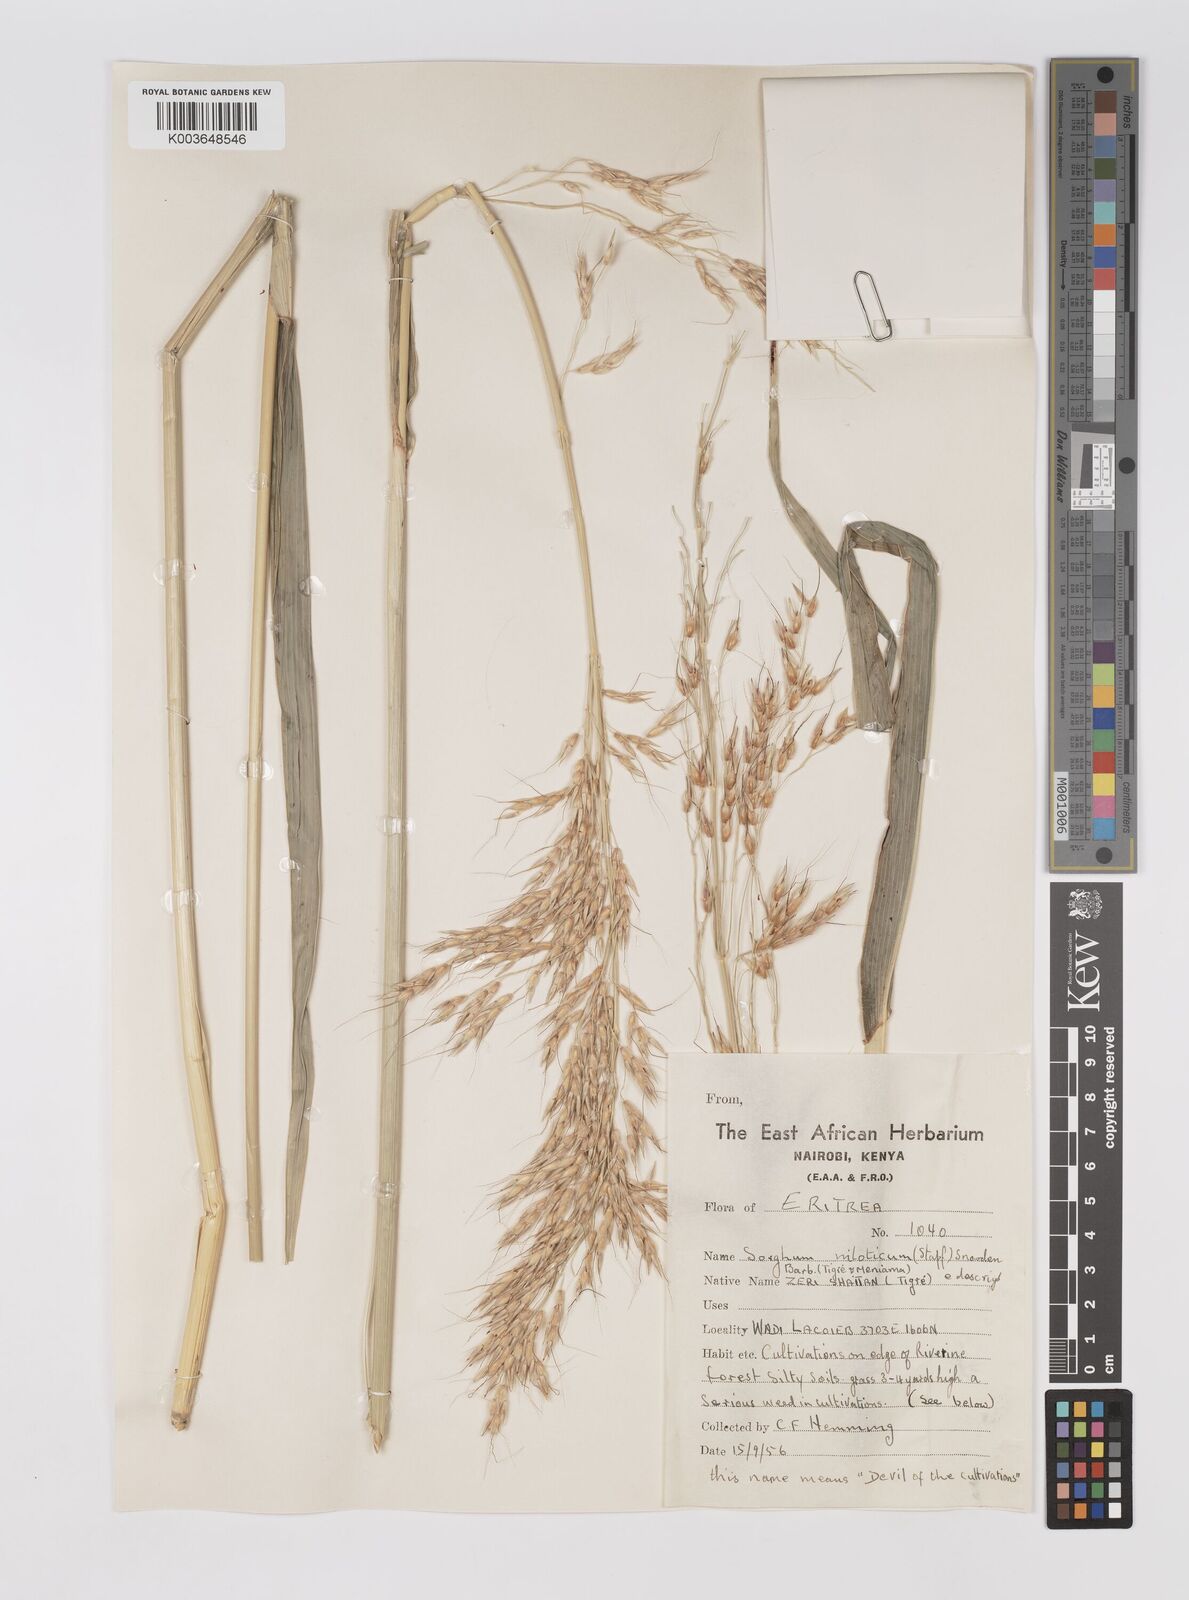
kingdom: Plantae
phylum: Tracheophyta
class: Liliopsida
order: Poales
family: Poaceae
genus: Sorghum
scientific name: Sorghum drummondii
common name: Sudangrass
